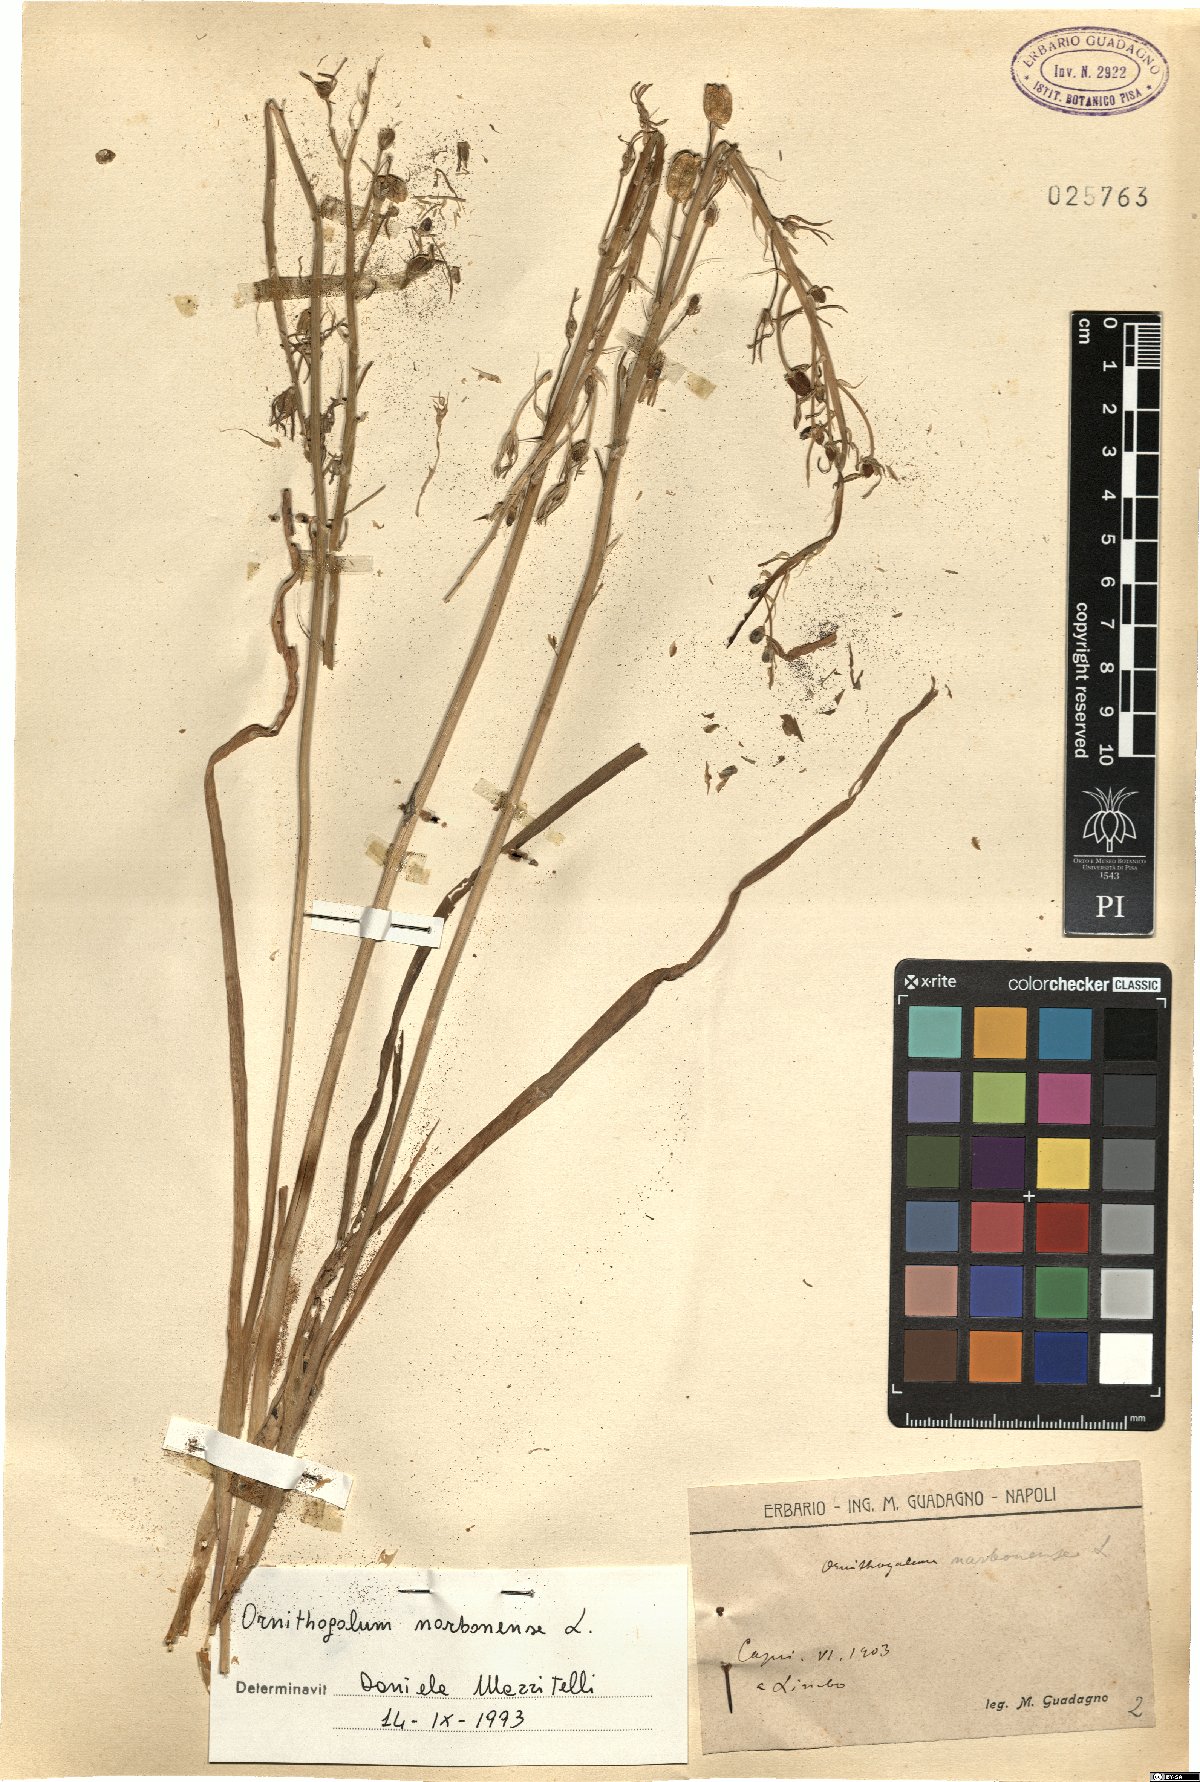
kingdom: Plantae
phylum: Tracheophyta
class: Liliopsida
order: Asparagales
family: Asparagaceae
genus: Ornithogalum
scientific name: Ornithogalum narbonense
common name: Bath-asparagus
